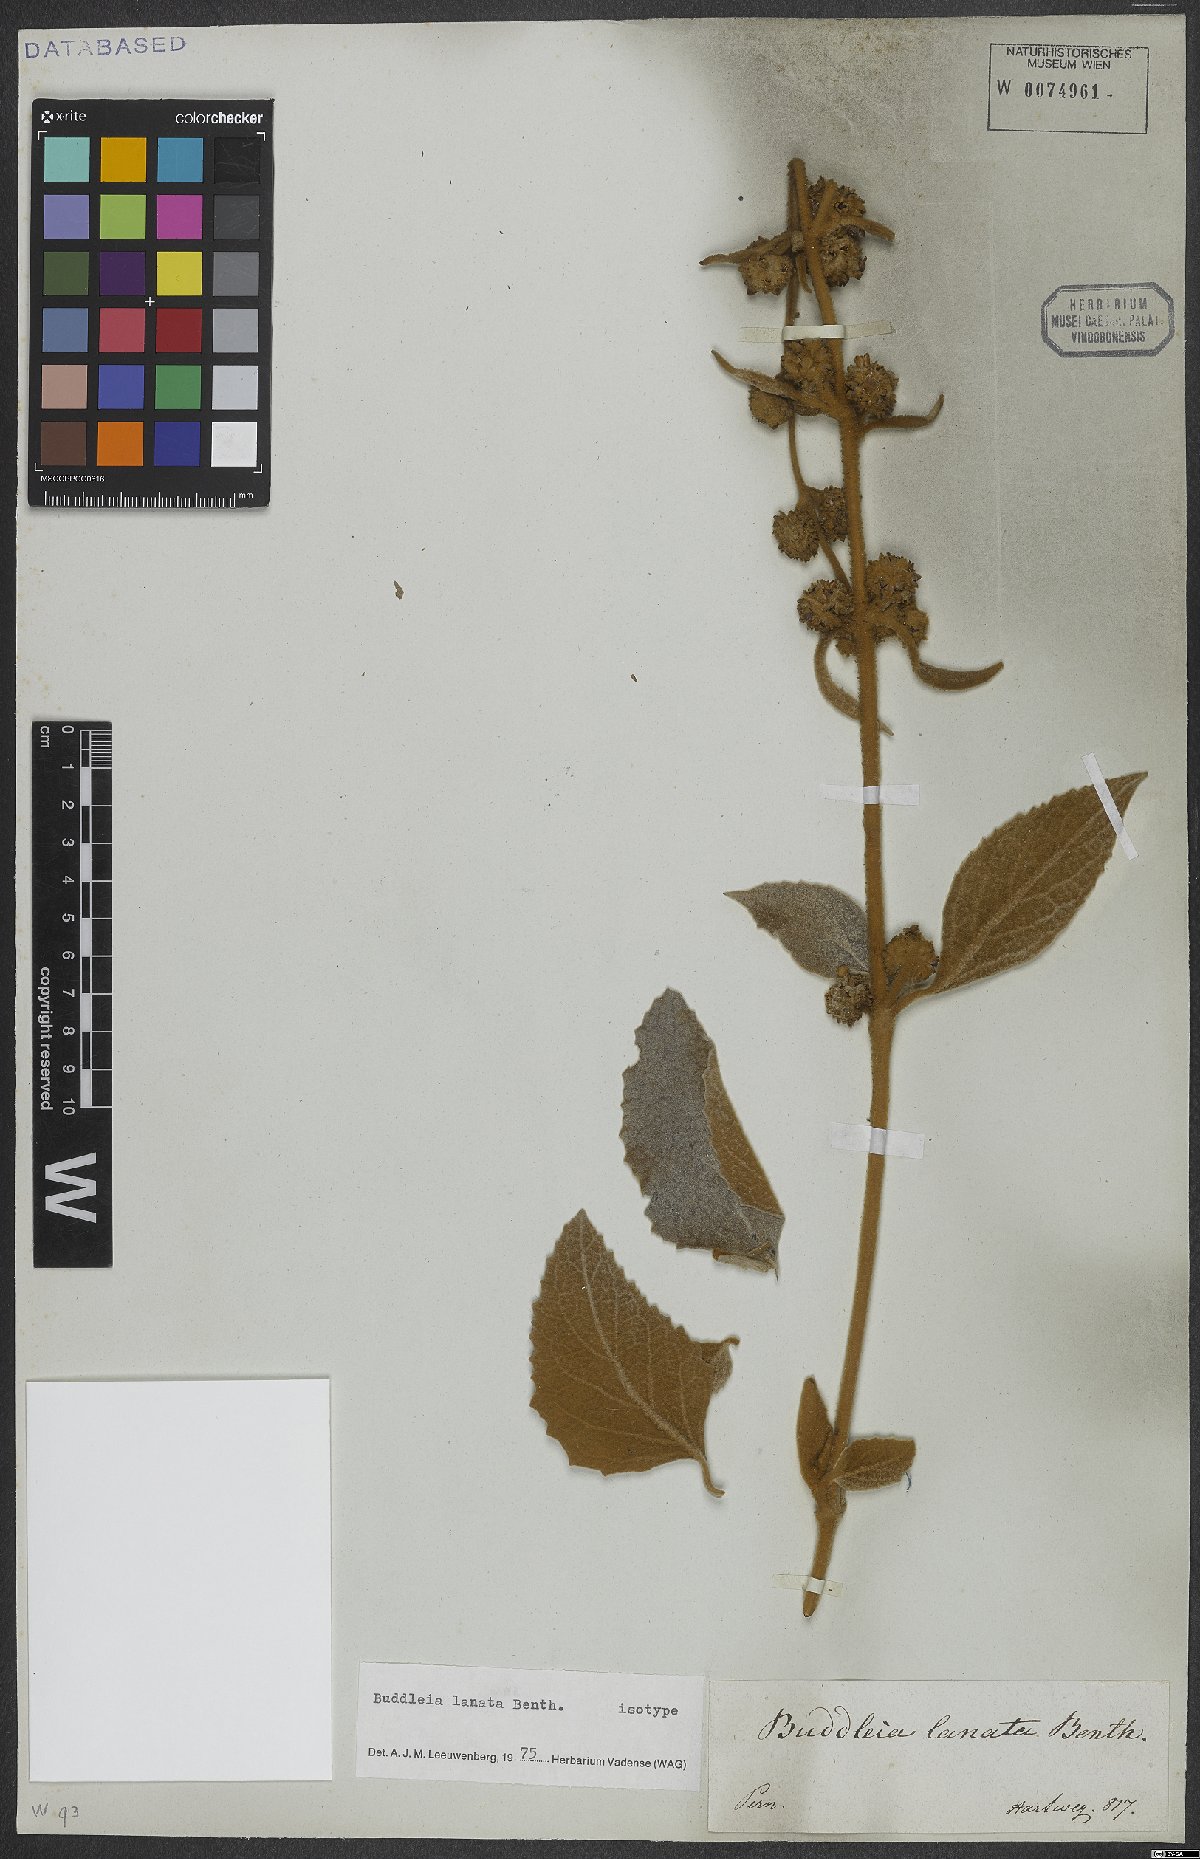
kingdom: Plantae
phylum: Tracheophyta
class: Magnoliopsida
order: Lamiales
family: Scrophulariaceae
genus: Buddleja
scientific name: Buddleja lanata
